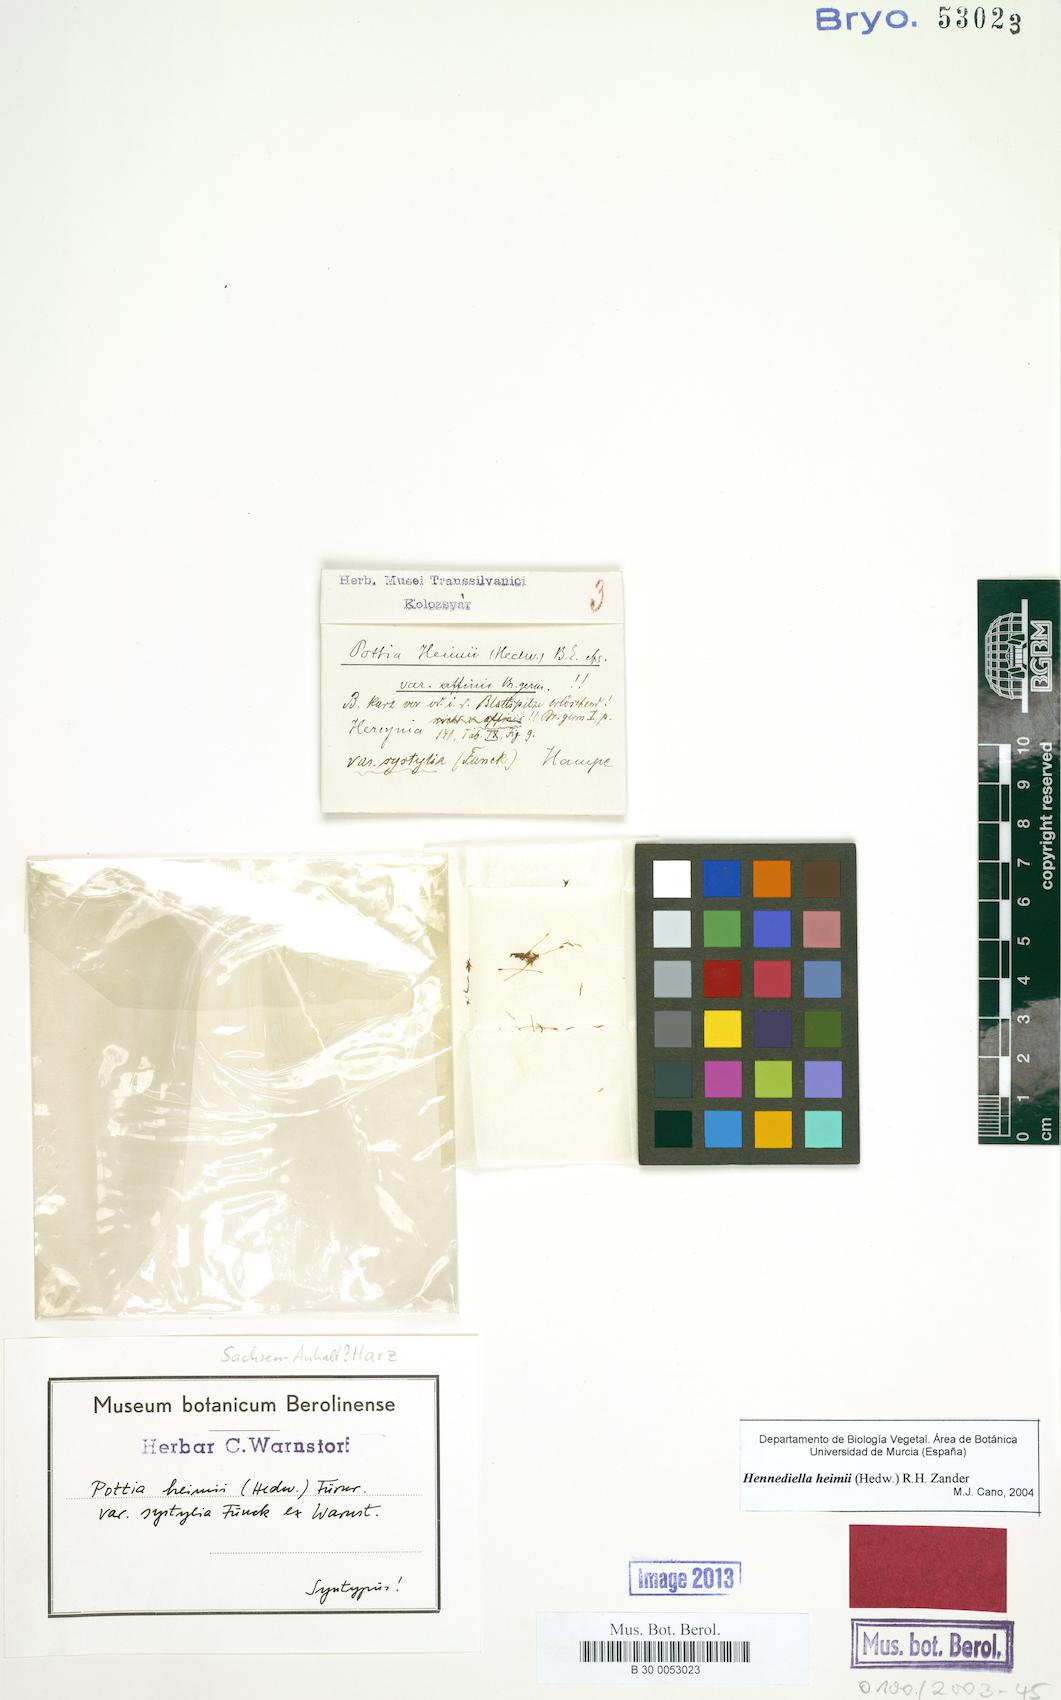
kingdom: Plantae
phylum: Bryophyta
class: Bryopsida
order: Pottiales
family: Pottiaceae
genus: Hennediella
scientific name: Hennediella heimii
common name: Heim's pottia
